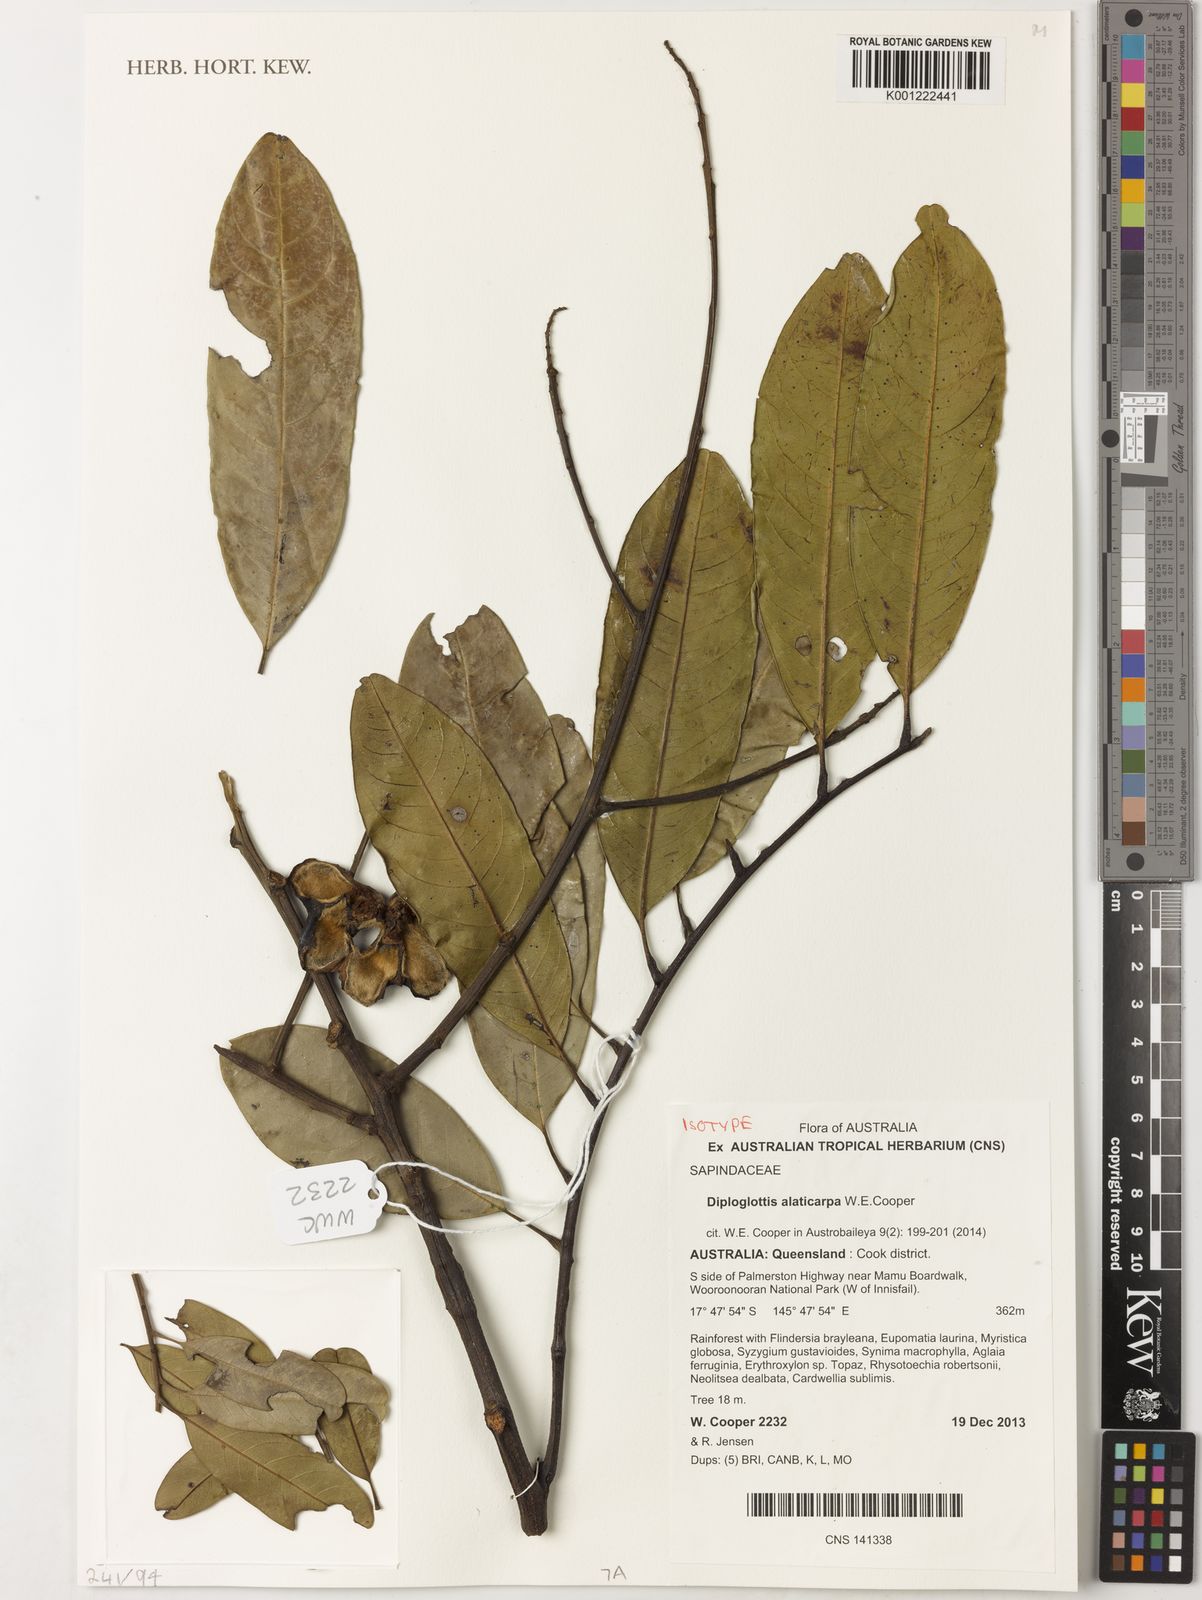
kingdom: Plantae
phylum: Tracheophyta
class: Magnoliopsida
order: Sapindales
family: Sapindaceae
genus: Diploglottis
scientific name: Diploglottis alaticarpa
